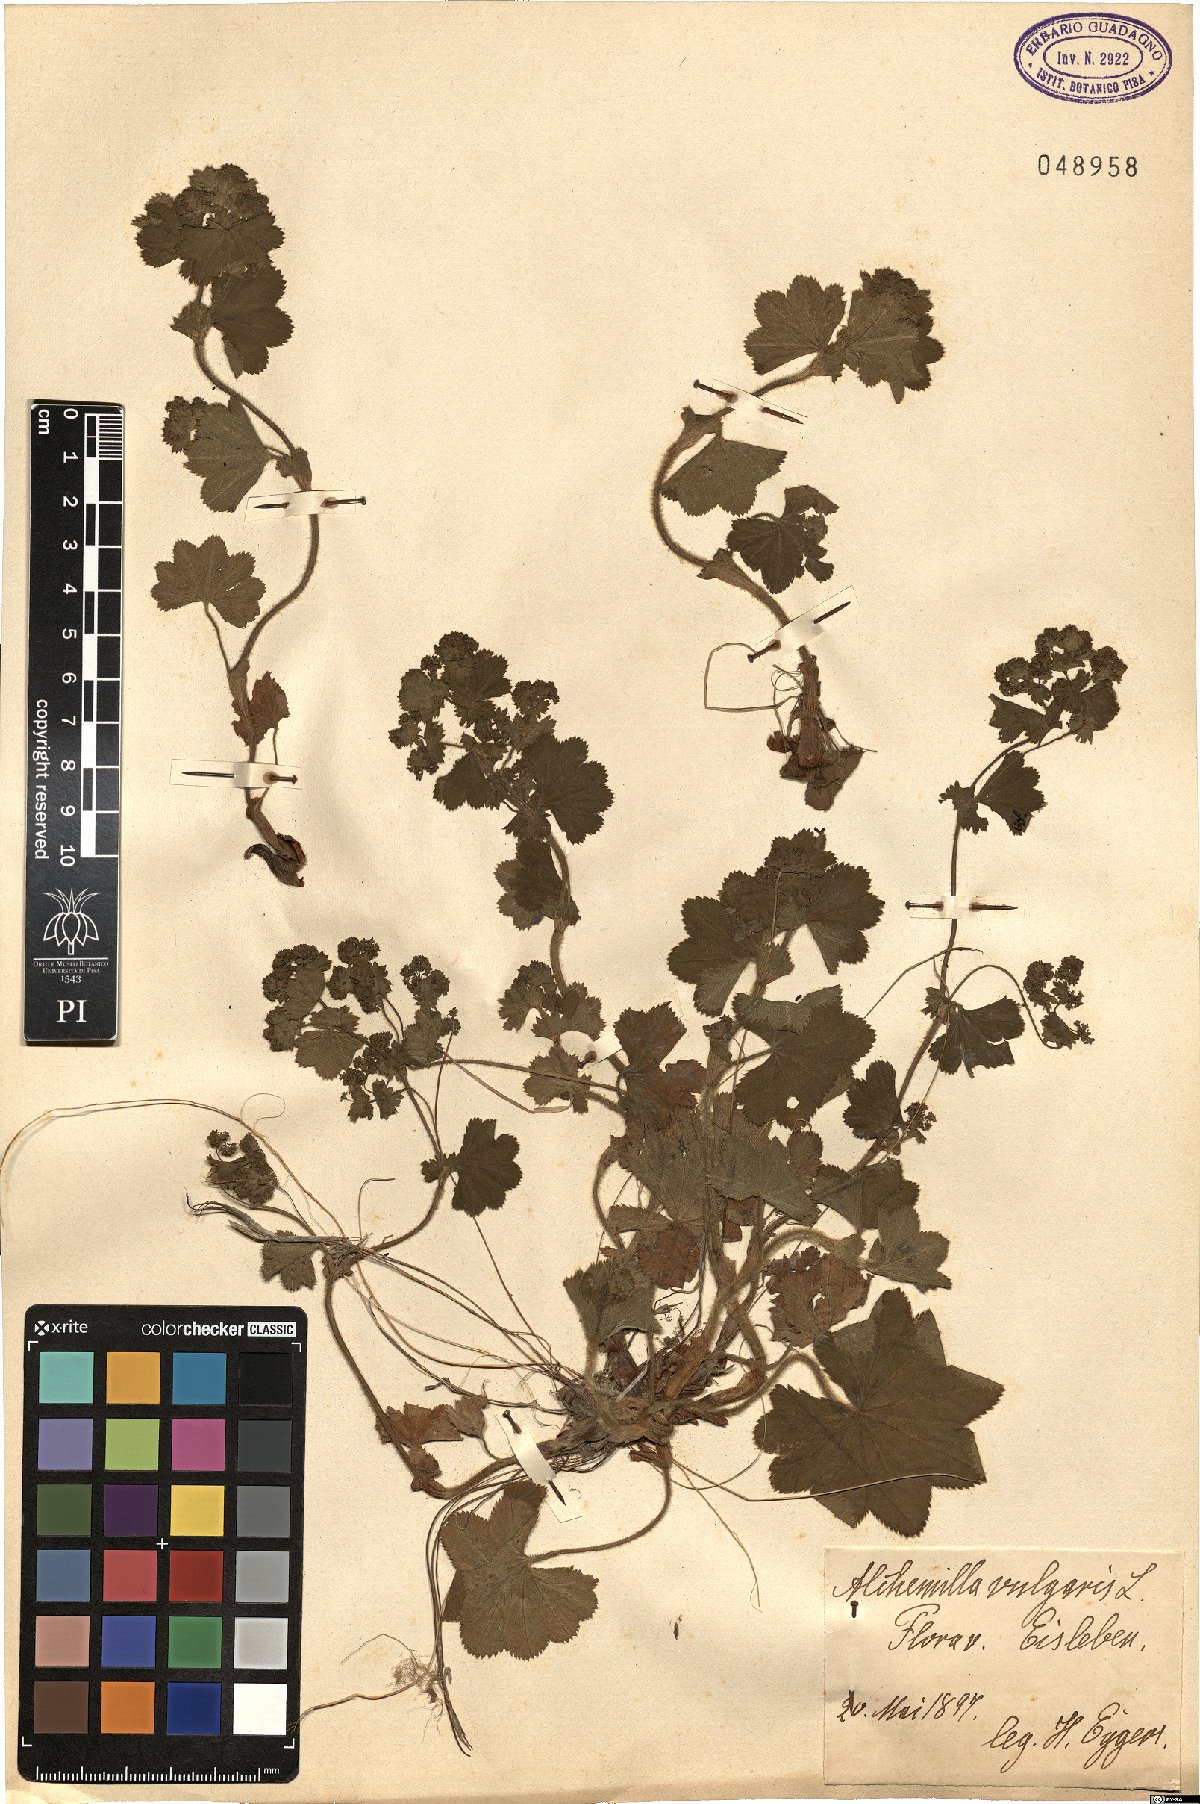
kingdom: Plantae
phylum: Tracheophyta
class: Magnoliopsida
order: Rosales
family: Rosaceae
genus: Alchemilla
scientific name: Alchemilla vulgaris
